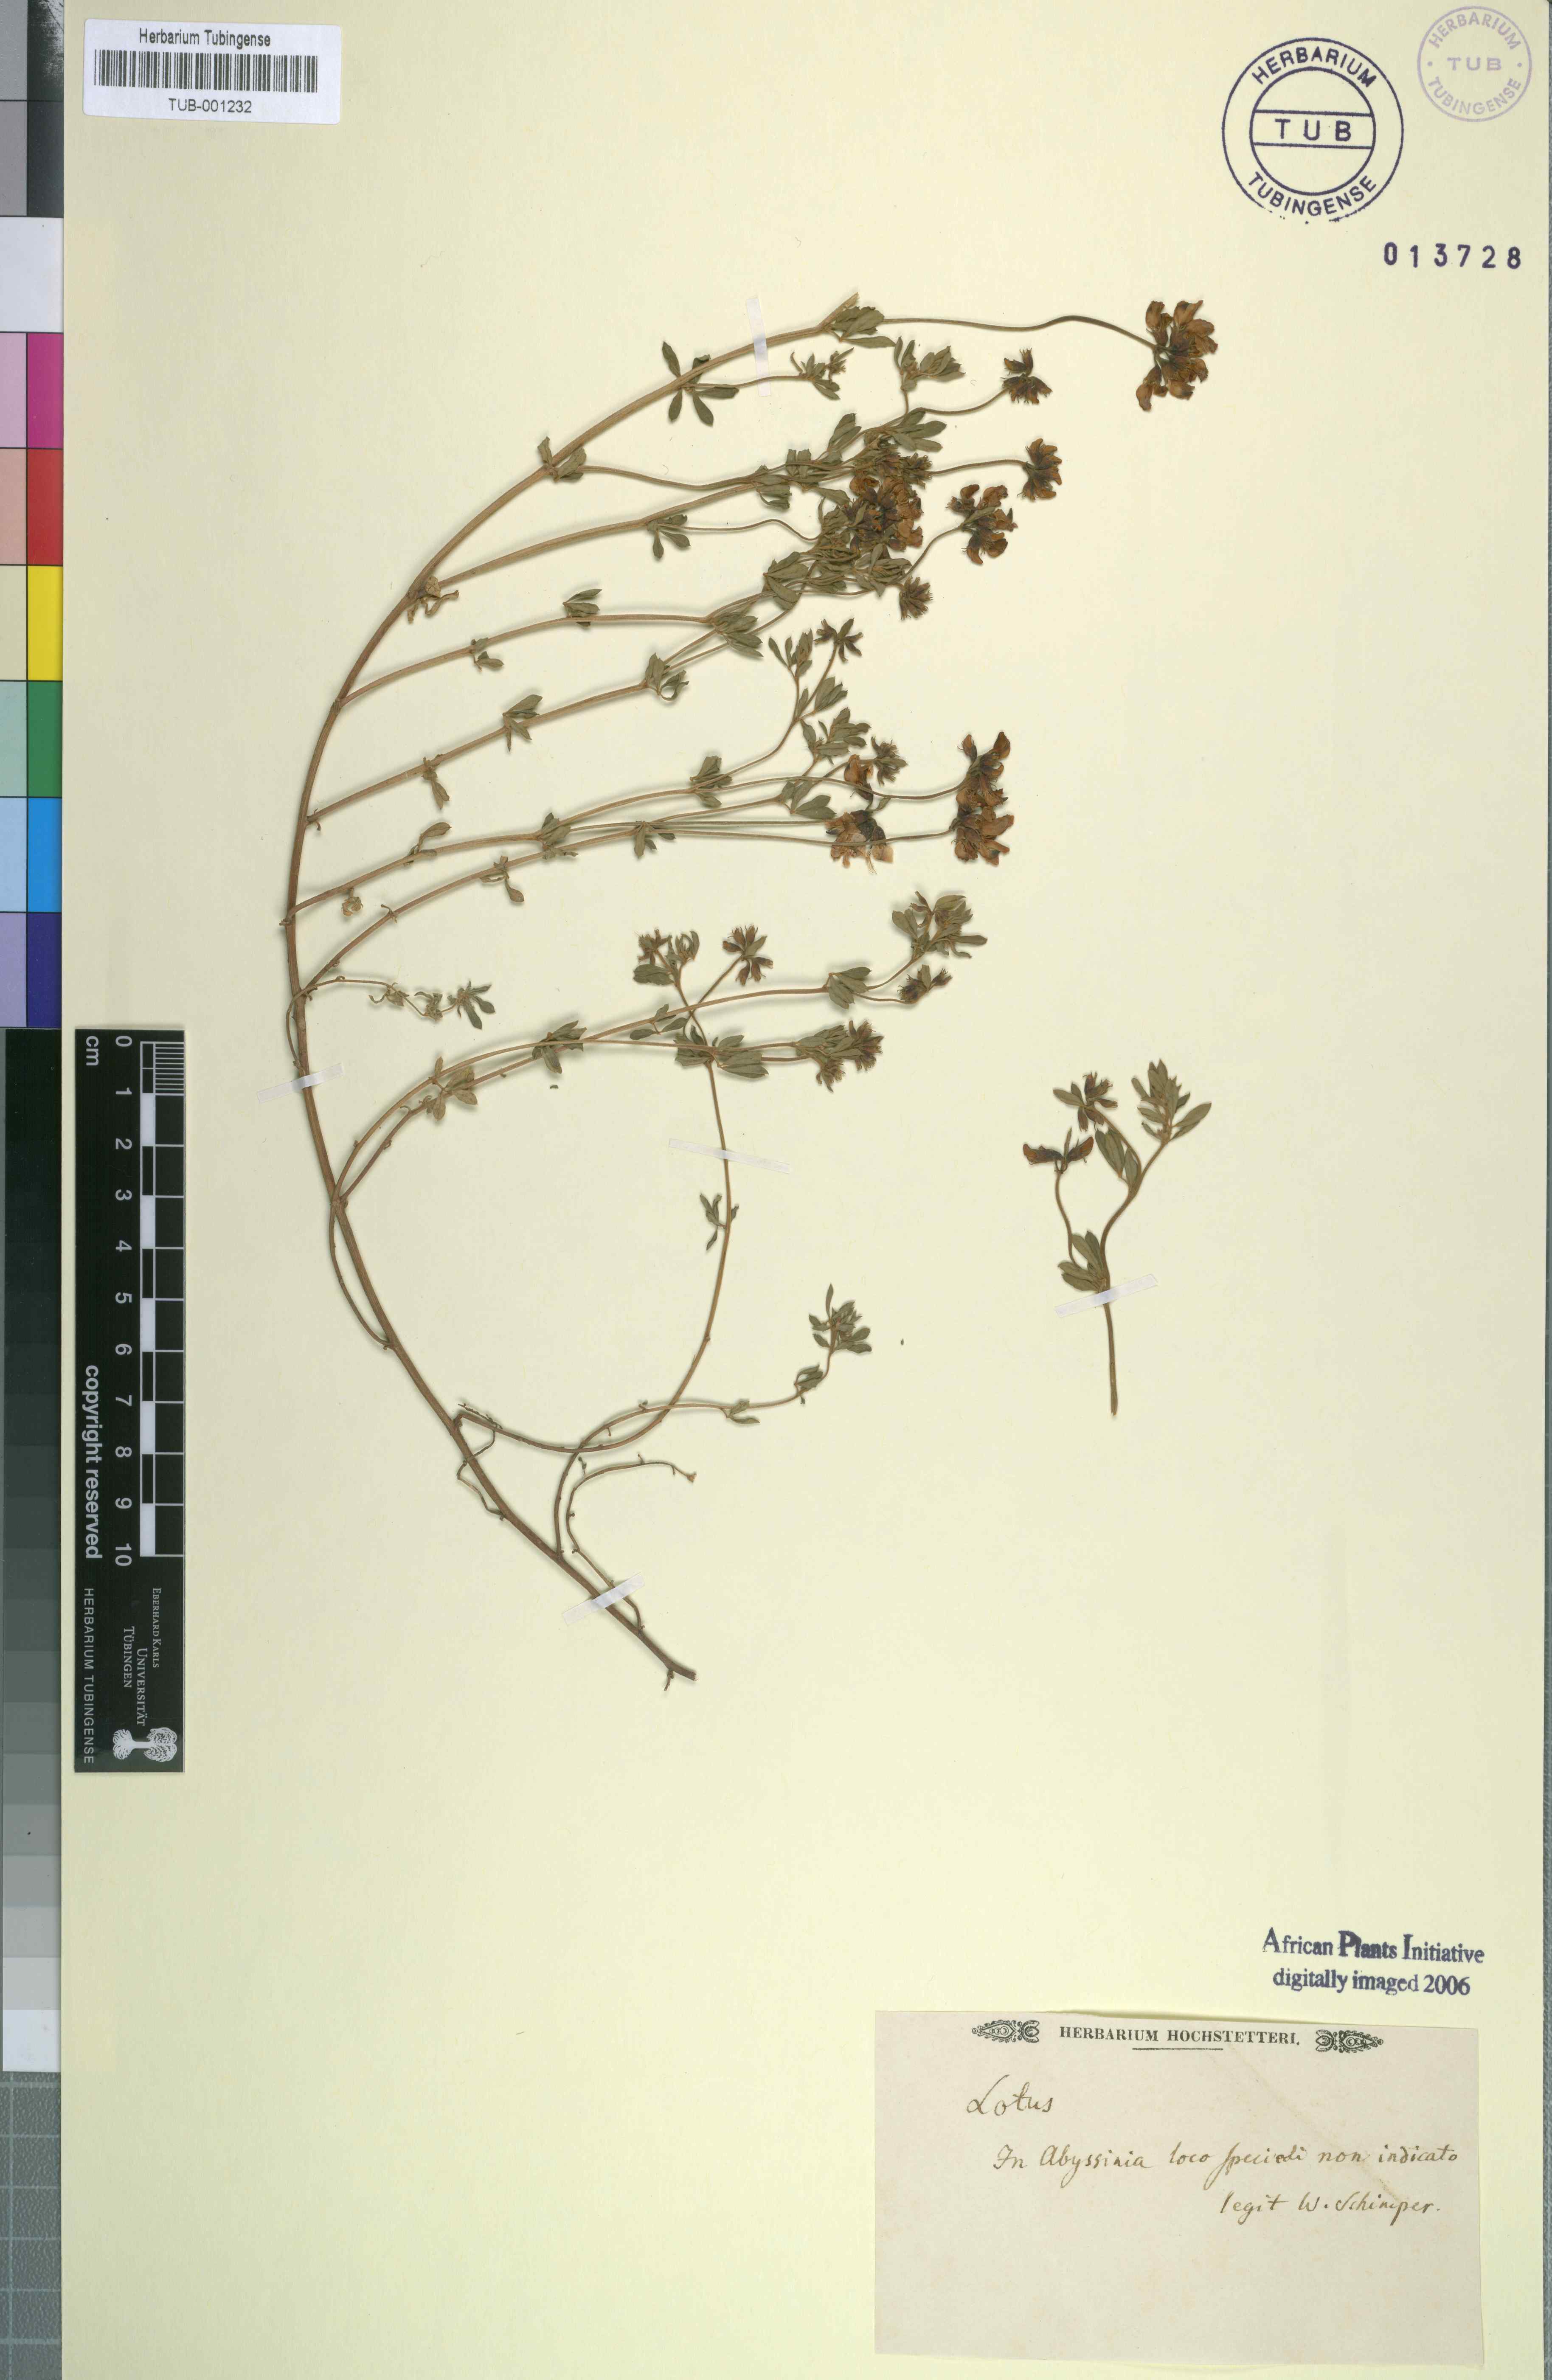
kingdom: Plantae
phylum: Tracheophyta
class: Magnoliopsida
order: Fabales
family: Fabaceae
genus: Lotus
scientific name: Lotus
